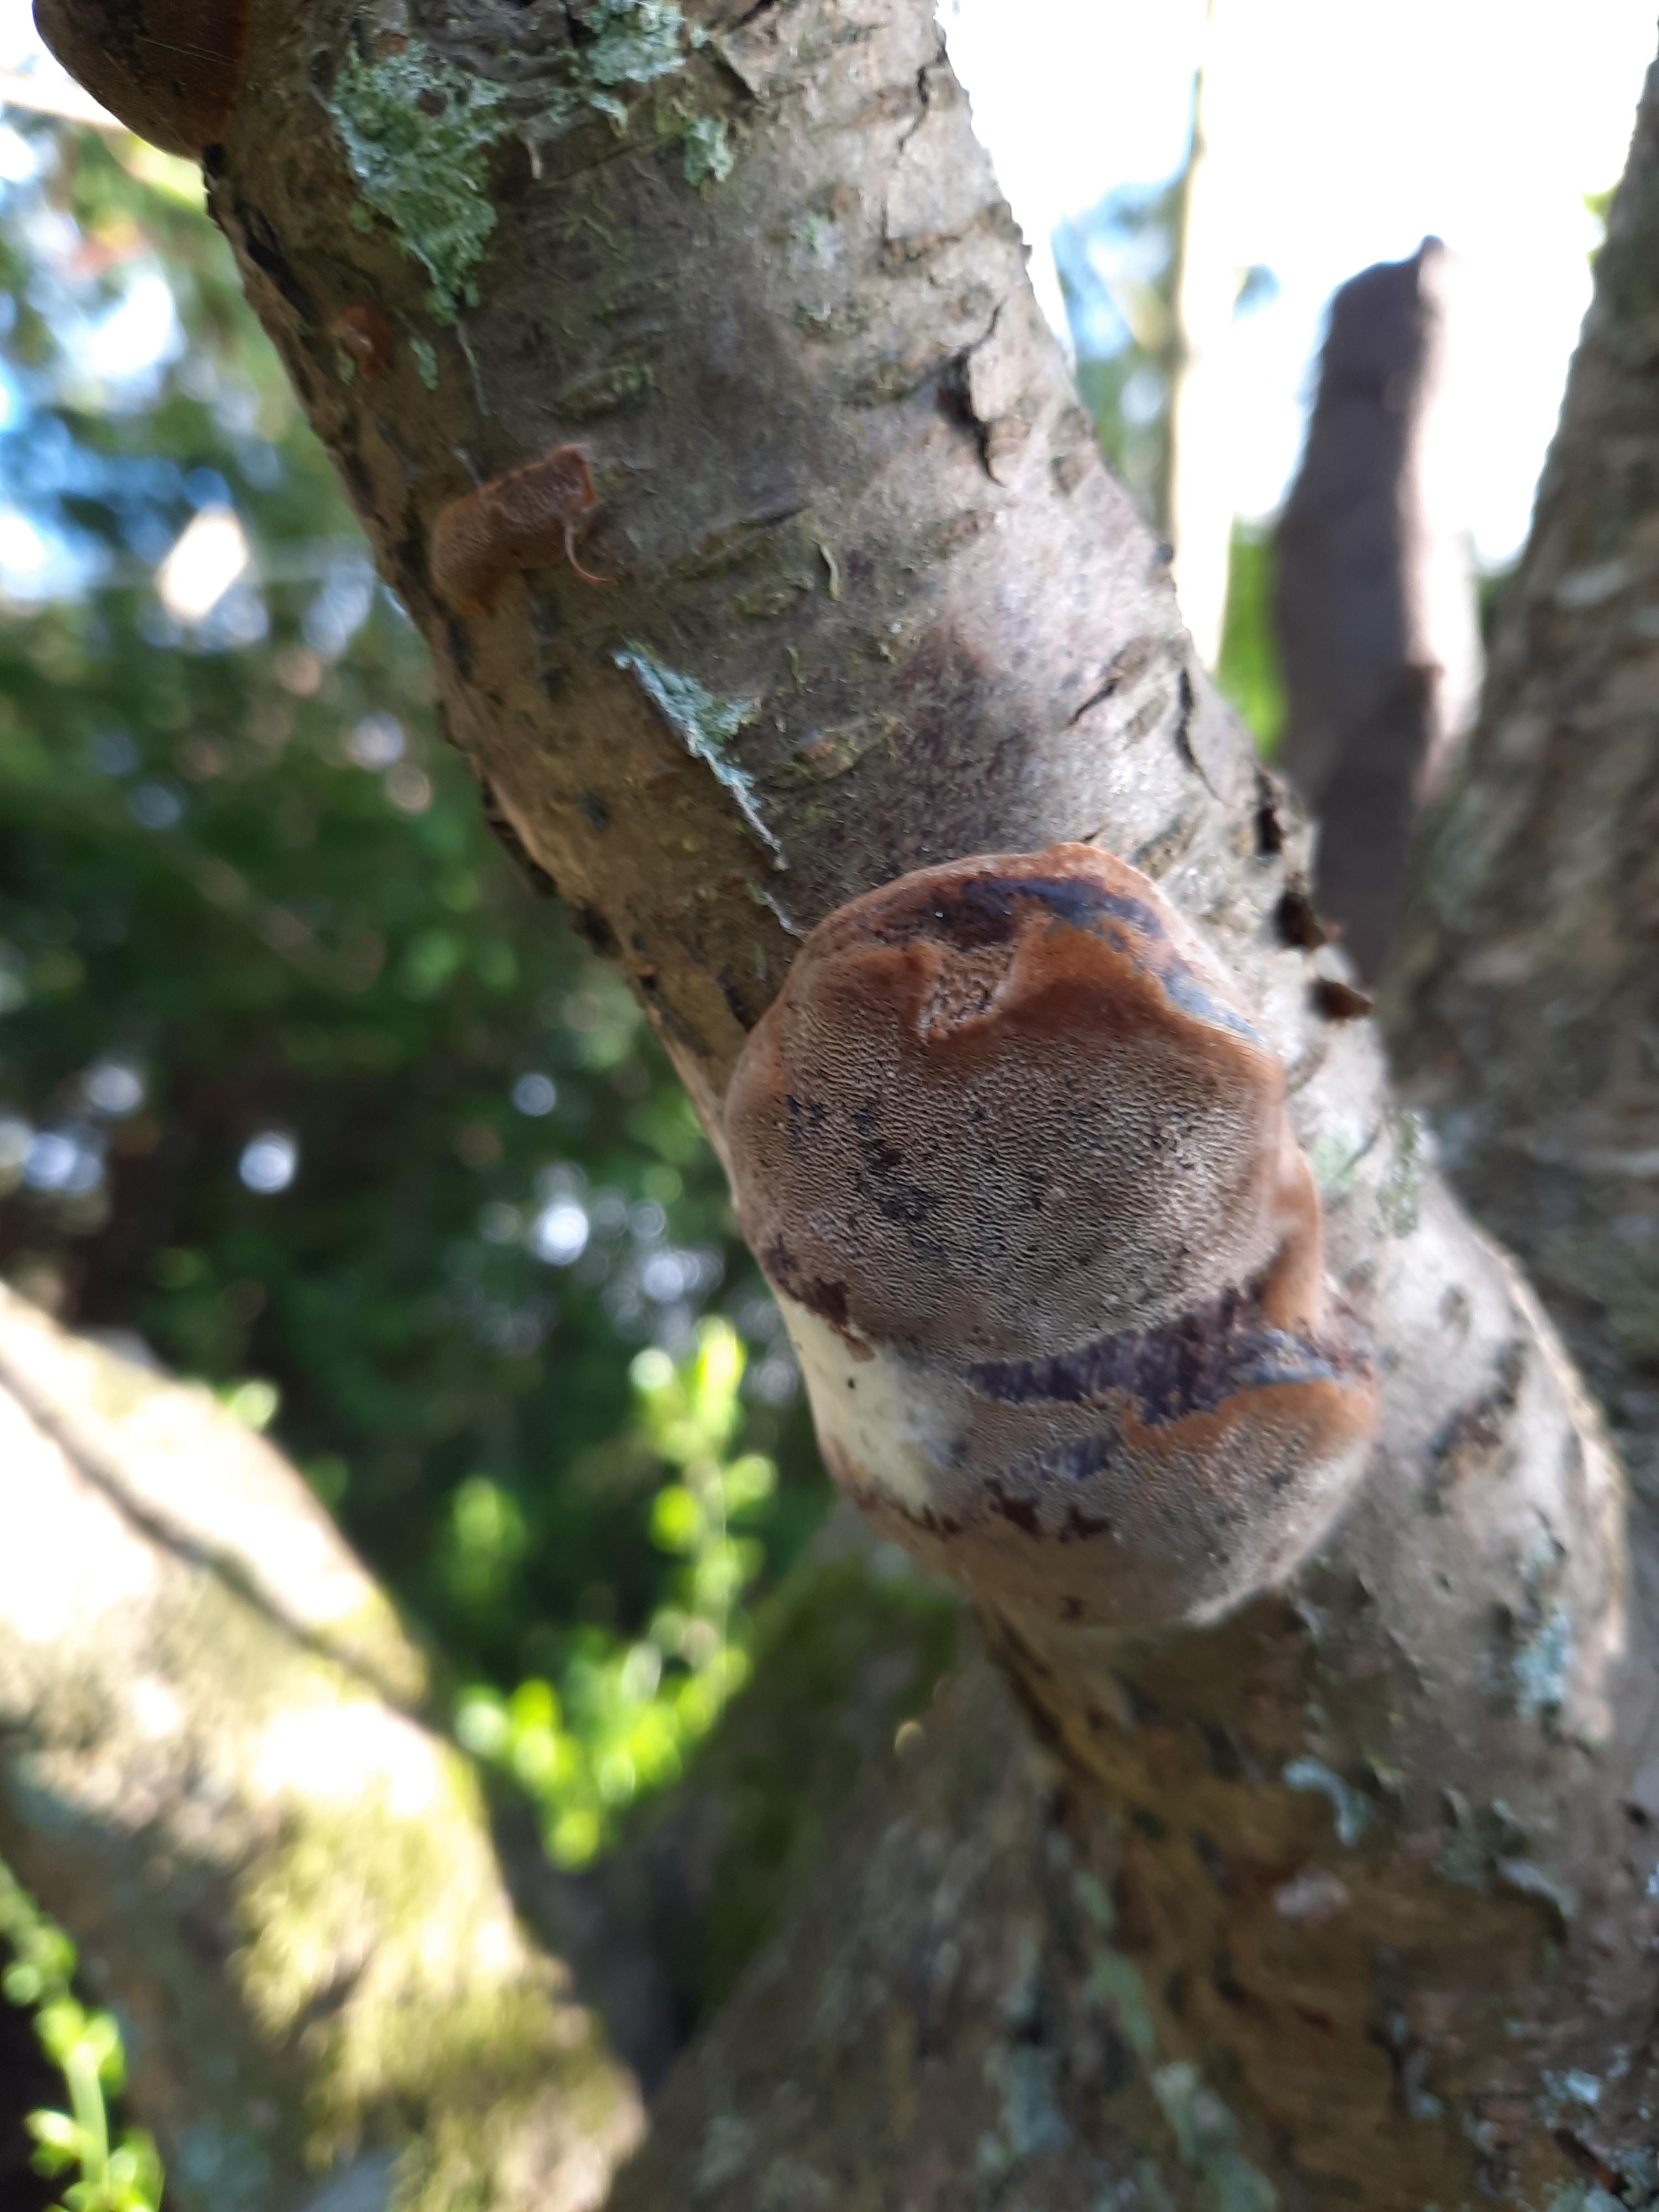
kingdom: Fungi
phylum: Basidiomycota
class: Agaricomycetes
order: Hymenochaetales
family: Hymenochaetaceae
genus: Phellinus
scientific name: Phellinus pomaceus
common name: blomme-ildporesvamp
